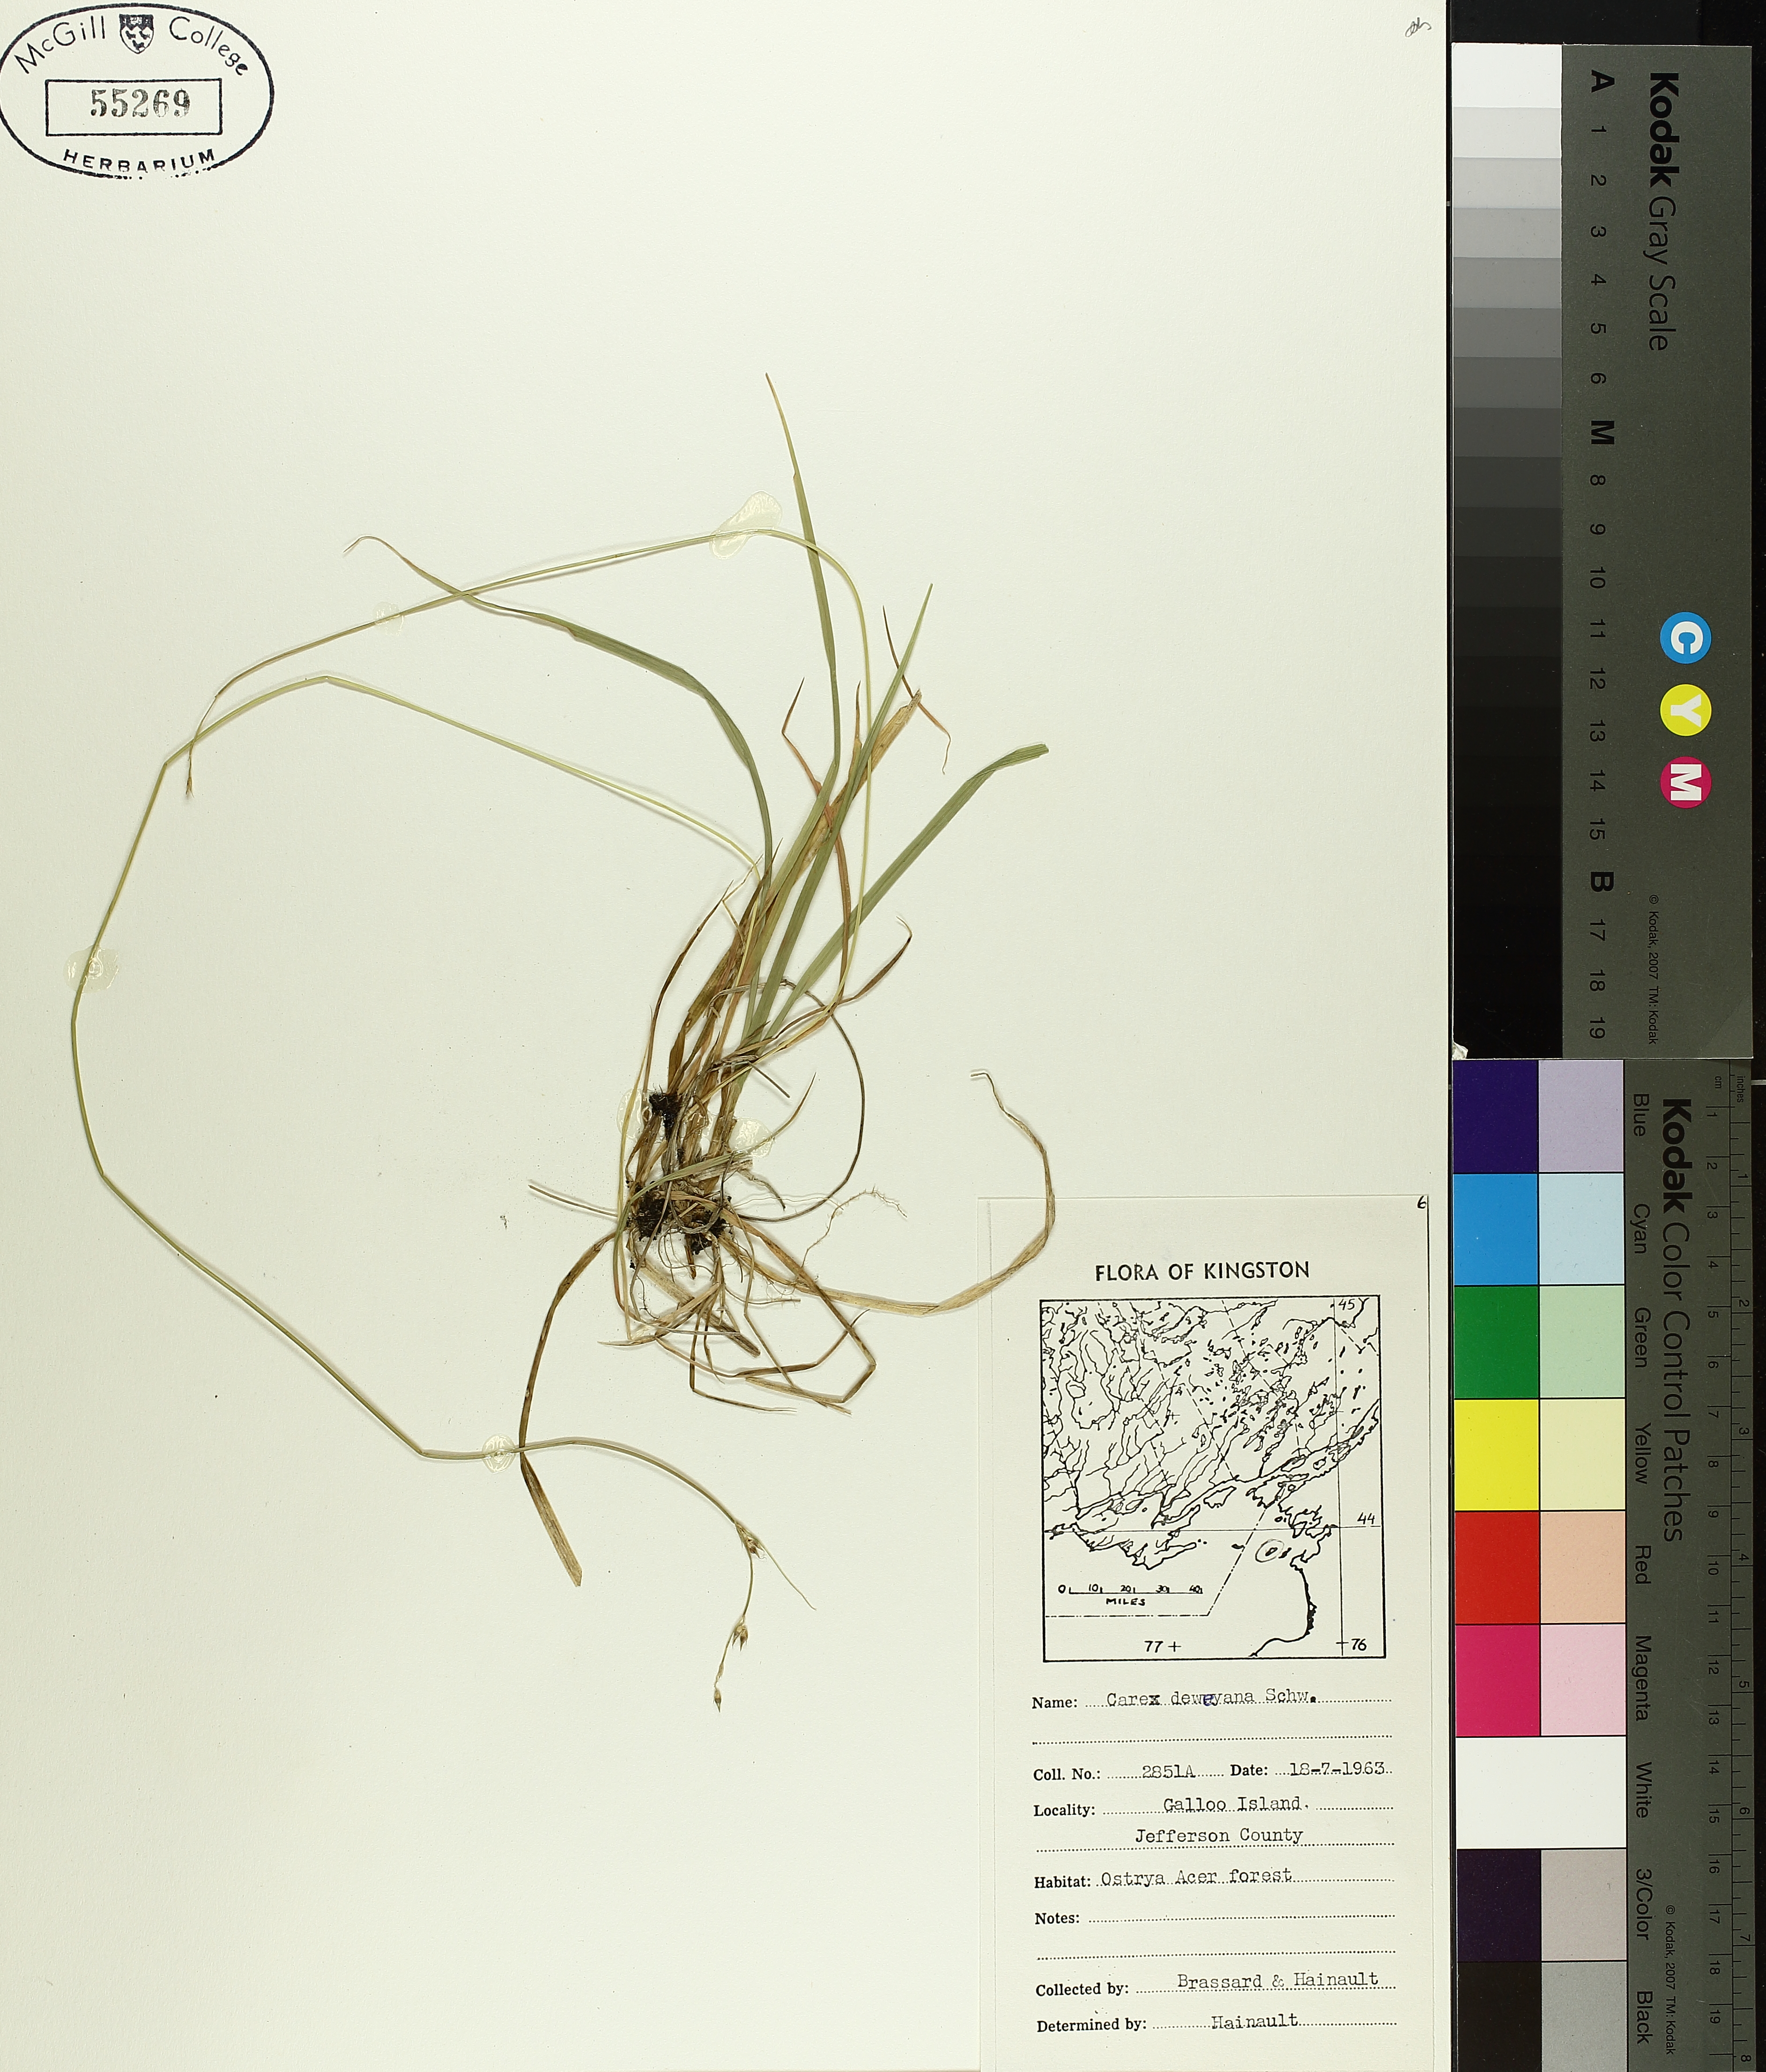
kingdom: Plantae
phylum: Tracheophyta
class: Liliopsida
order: Poales
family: Cyperaceae
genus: Carex
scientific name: Carex deweyana
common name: Dewey's sedge
